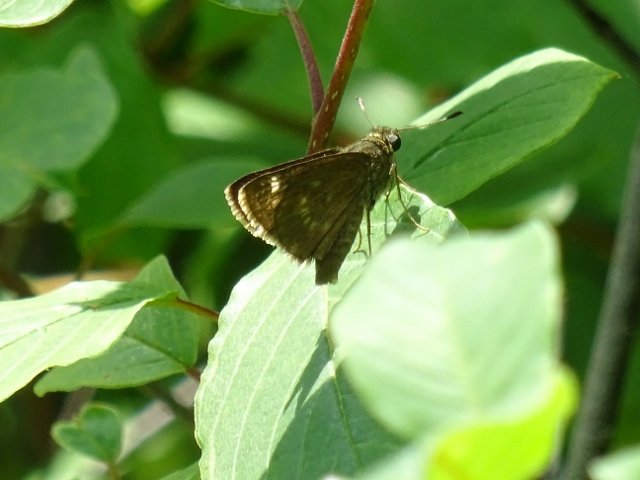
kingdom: Animalia
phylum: Arthropoda
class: Insecta
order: Lepidoptera
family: Hesperiidae
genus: Polites
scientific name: Polites egeremet
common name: Northern Broken-Dash
